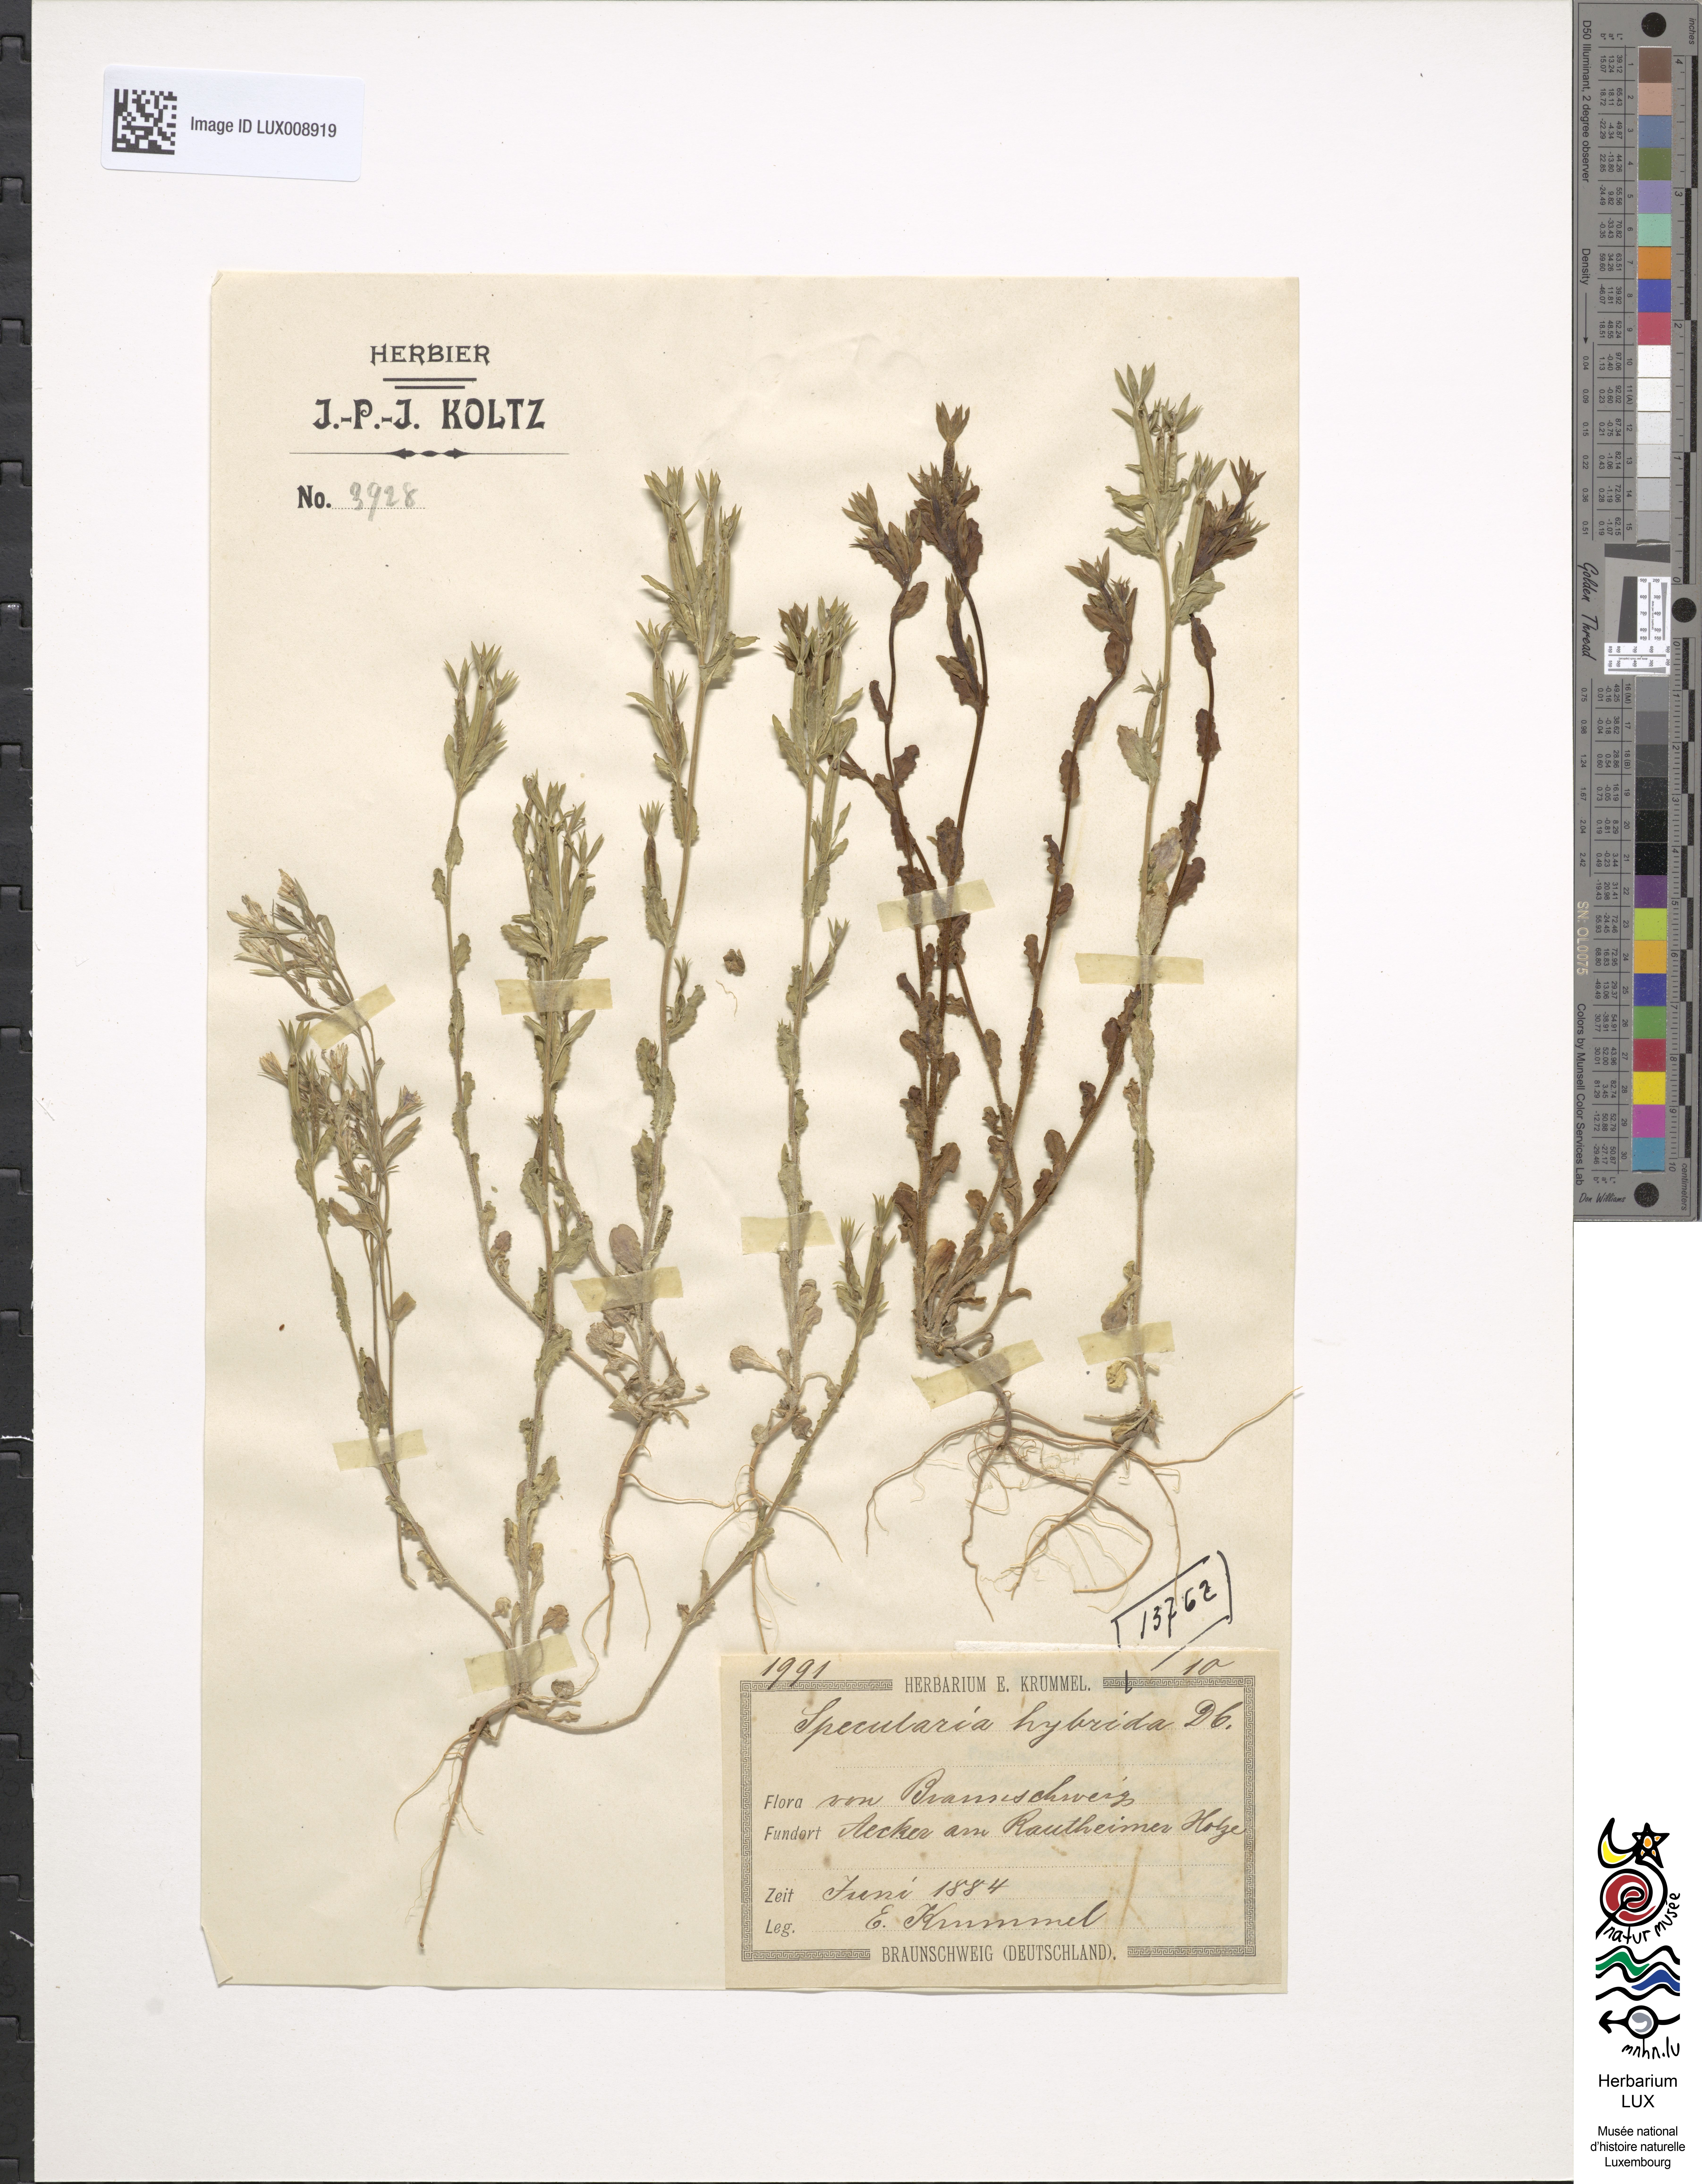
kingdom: Plantae
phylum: Tracheophyta
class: Magnoliopsida
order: Asterales
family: Campanulaceae
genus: Legousia
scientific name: Legousia hybrida
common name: Venus's-looking-glass
